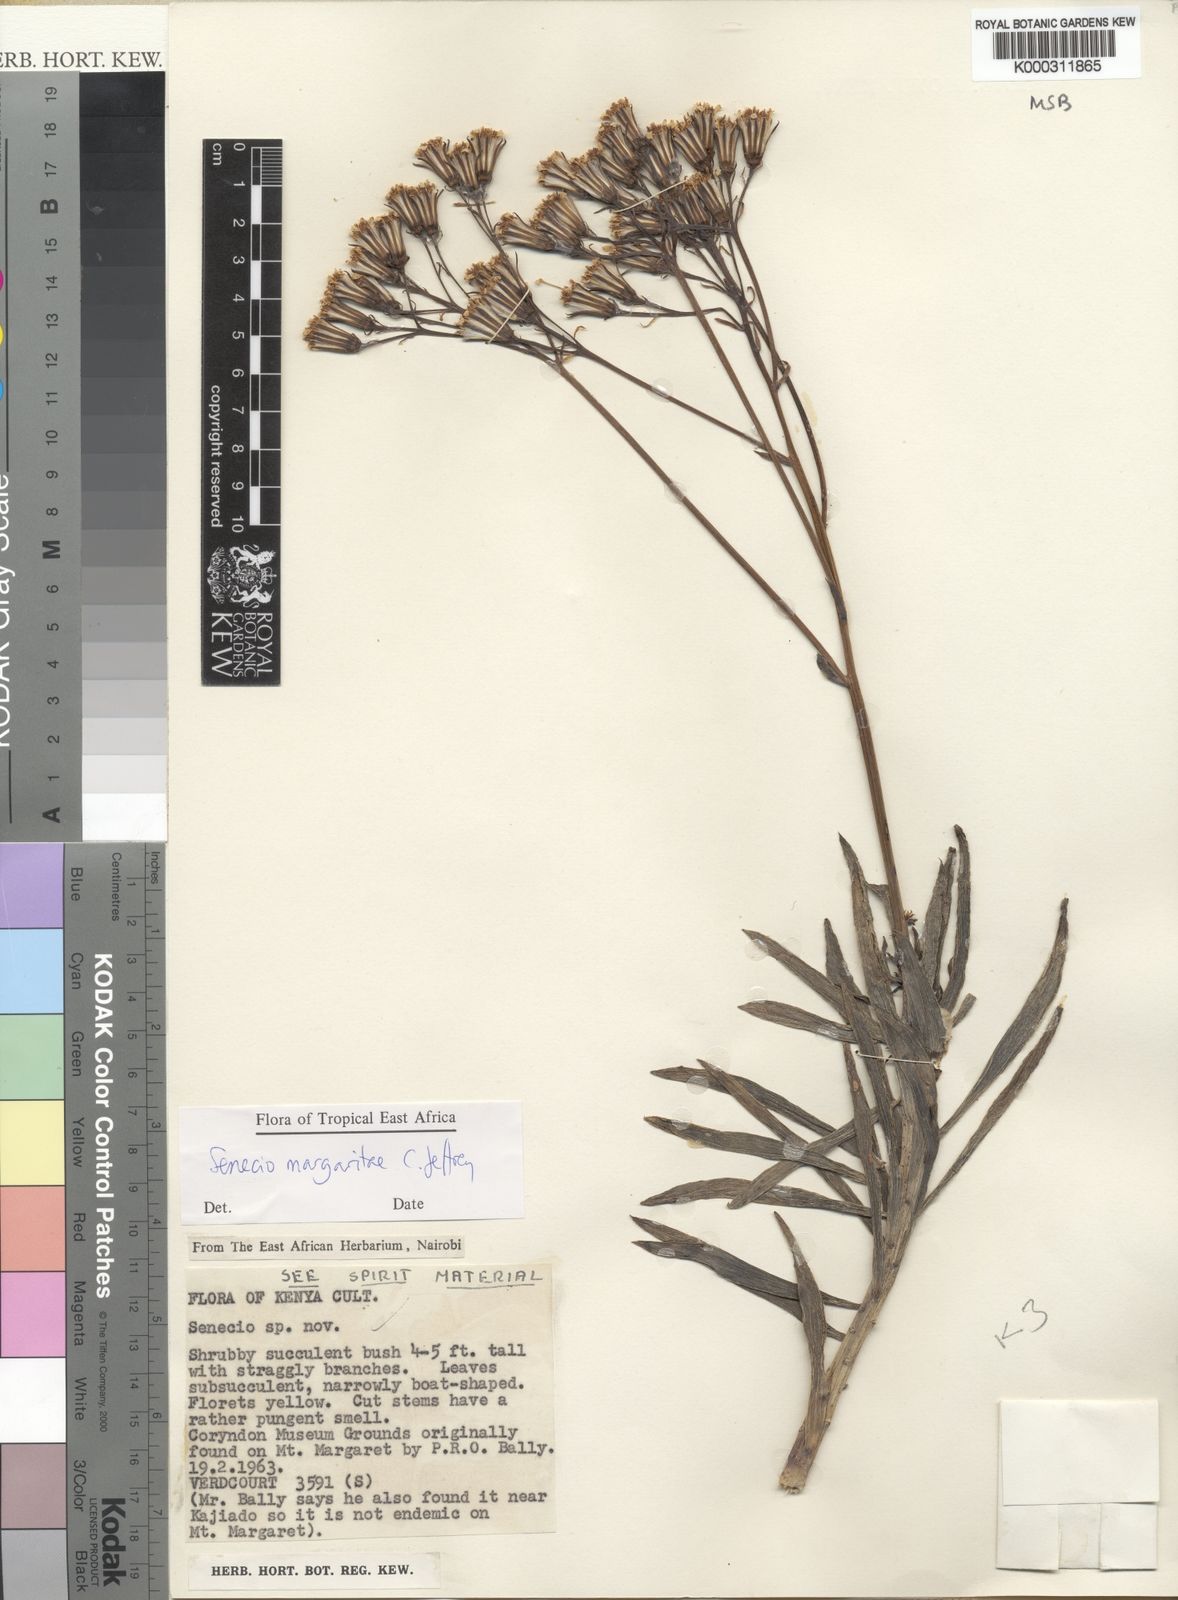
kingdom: Plantae
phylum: Tracheophyta
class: Magnoliopsida
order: Asterales
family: Asteraceae
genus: Senecio
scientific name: Senecio margaritae
